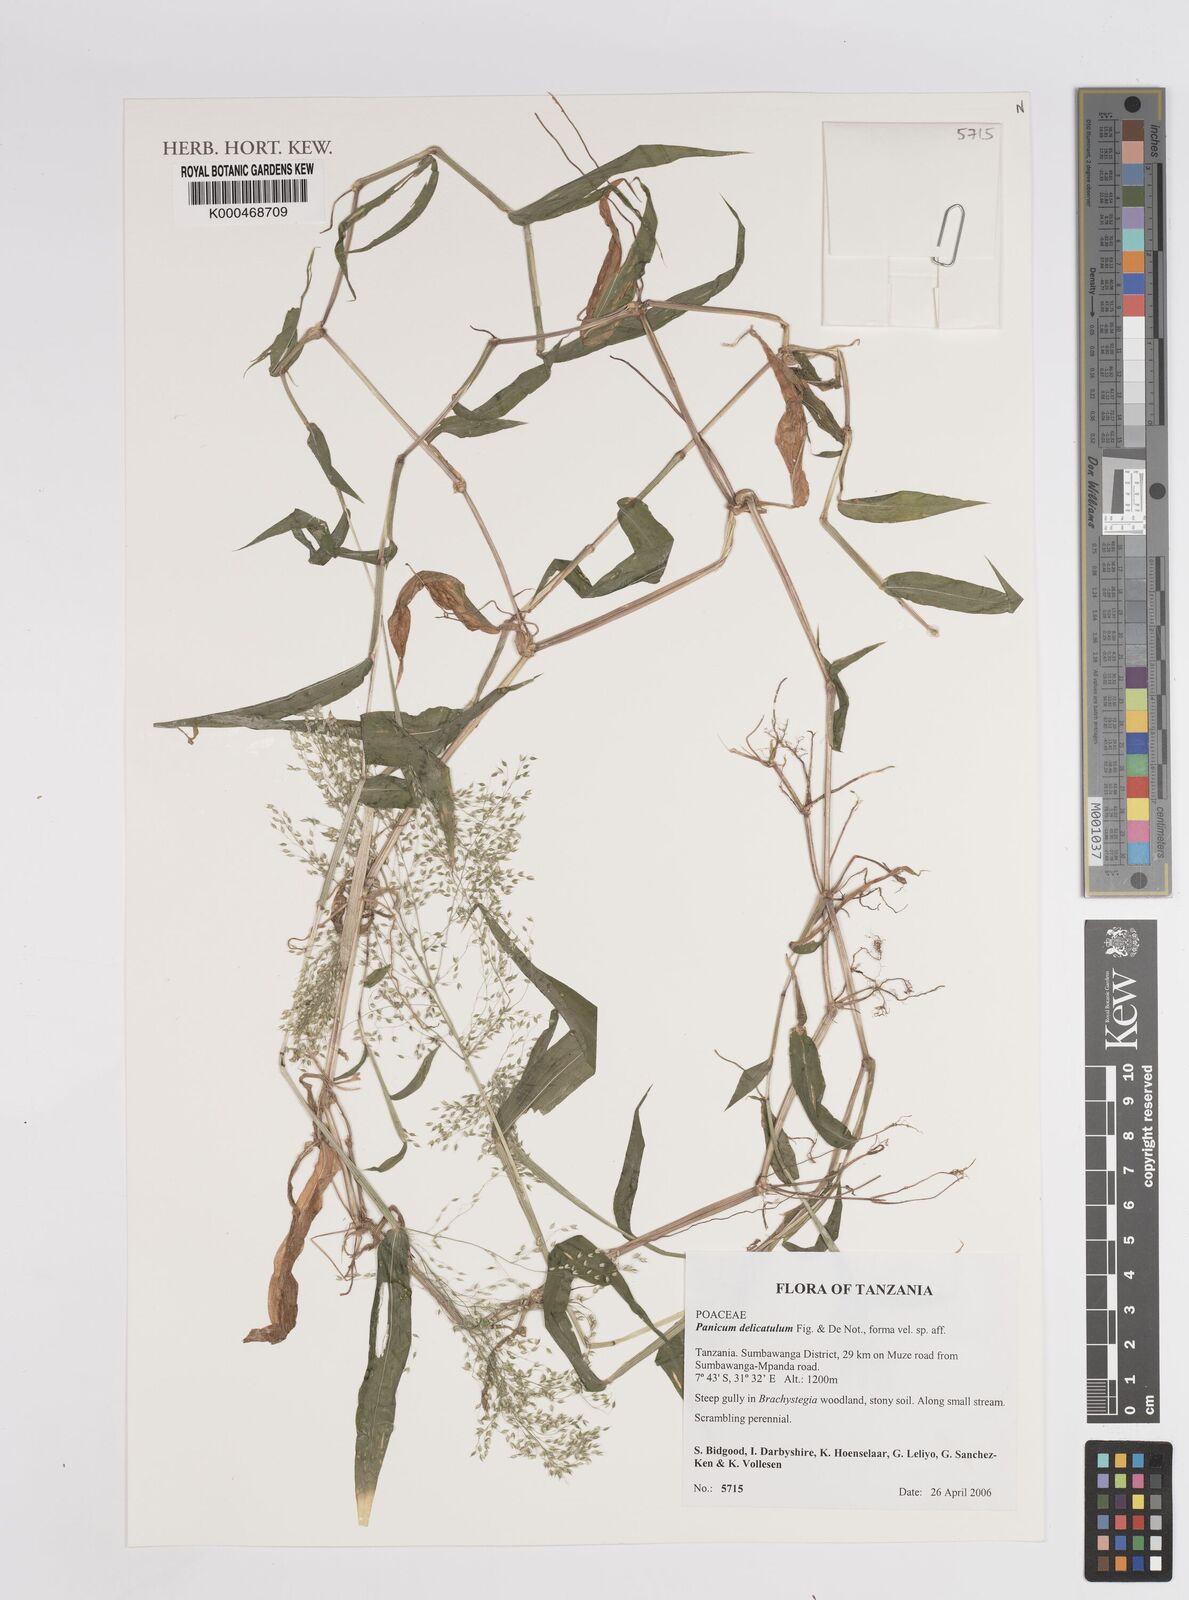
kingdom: Plantae
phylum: Tracheophyta
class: Liliopsida
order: Poales
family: Poaceae
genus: Panicum
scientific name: Panicum
